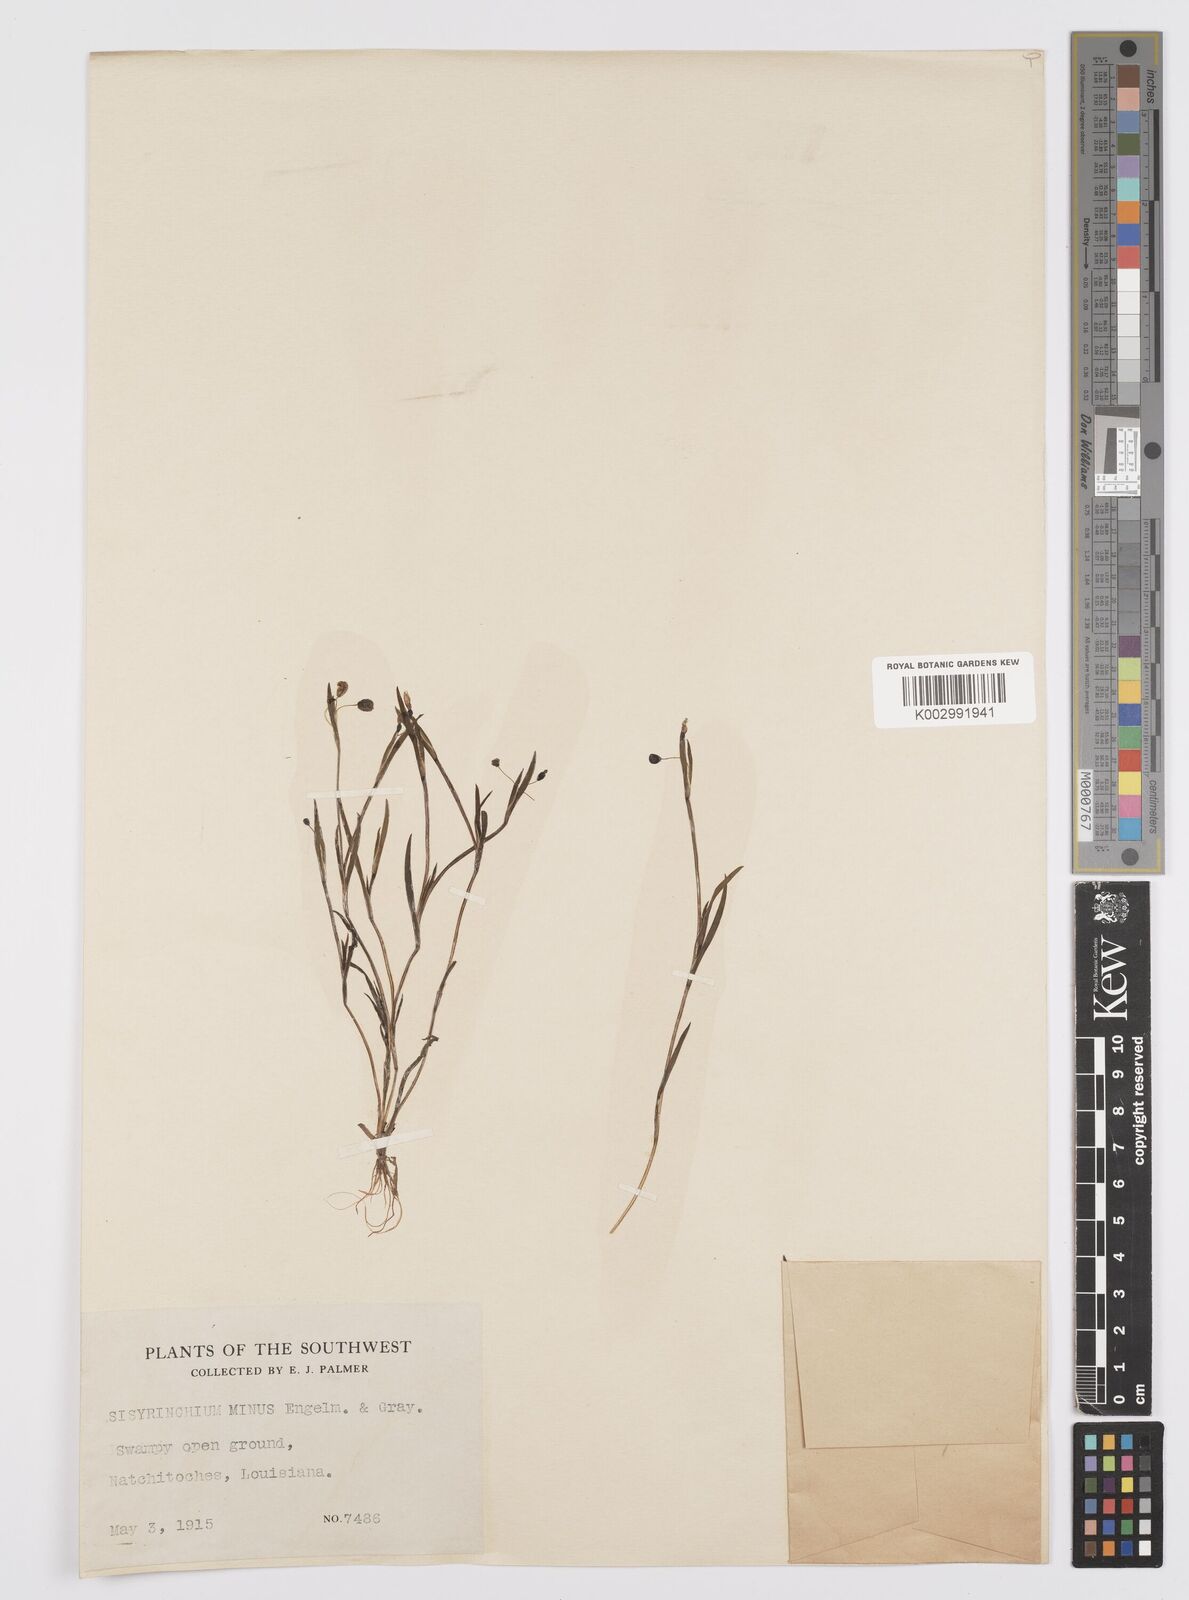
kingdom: Plantae
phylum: Tracheophyta
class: Liliopsida
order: Asparagales
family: Iridaceae
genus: Sisyrinchium
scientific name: Sisyrinchium minus
